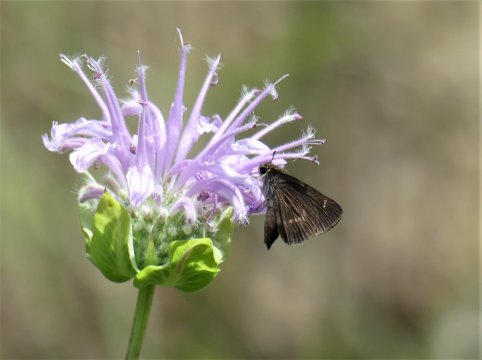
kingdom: Animalia
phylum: Arthropoda
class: Insecta
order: Lepidoptera
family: Hesperiidae
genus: Euphyes
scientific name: Euphyes vestris
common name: Dun Skipper
